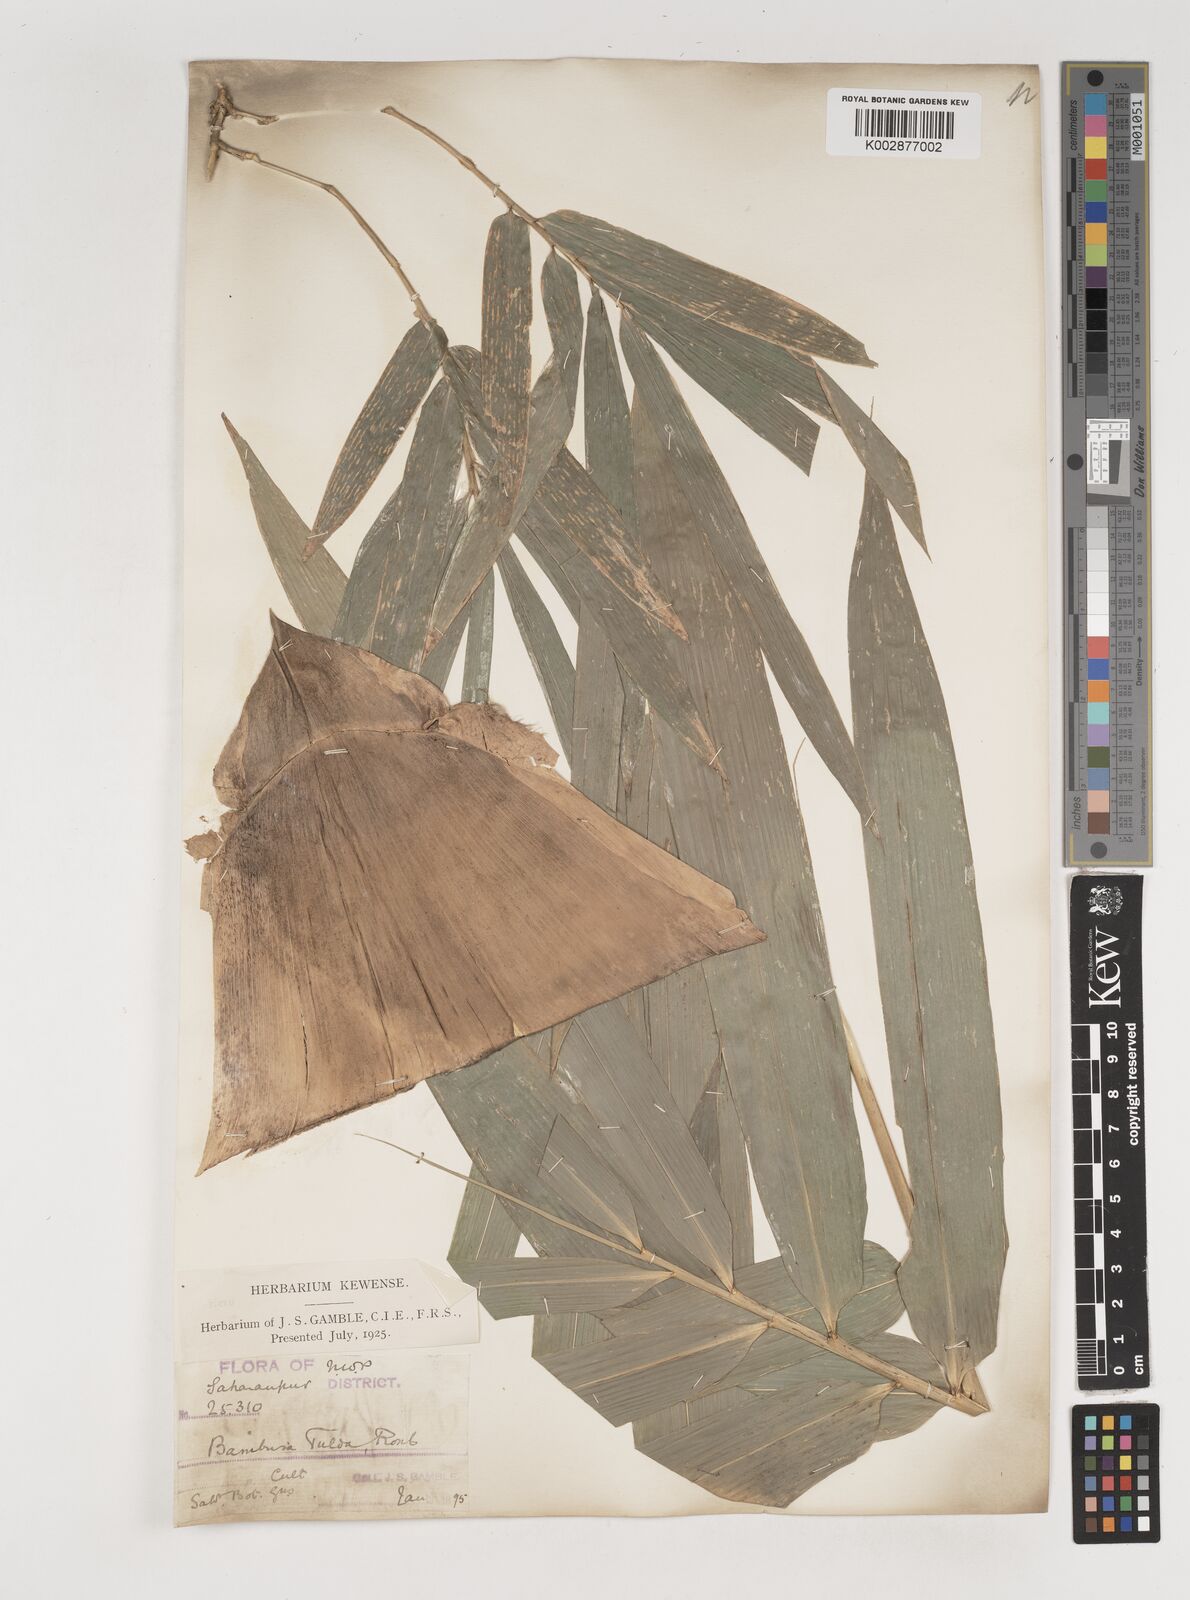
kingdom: Plantae
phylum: Tracheophyta
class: Liliopsida
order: Poales
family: Poaceae
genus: Bambusa
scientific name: Bambusa tulda
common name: Bengal bamboo
